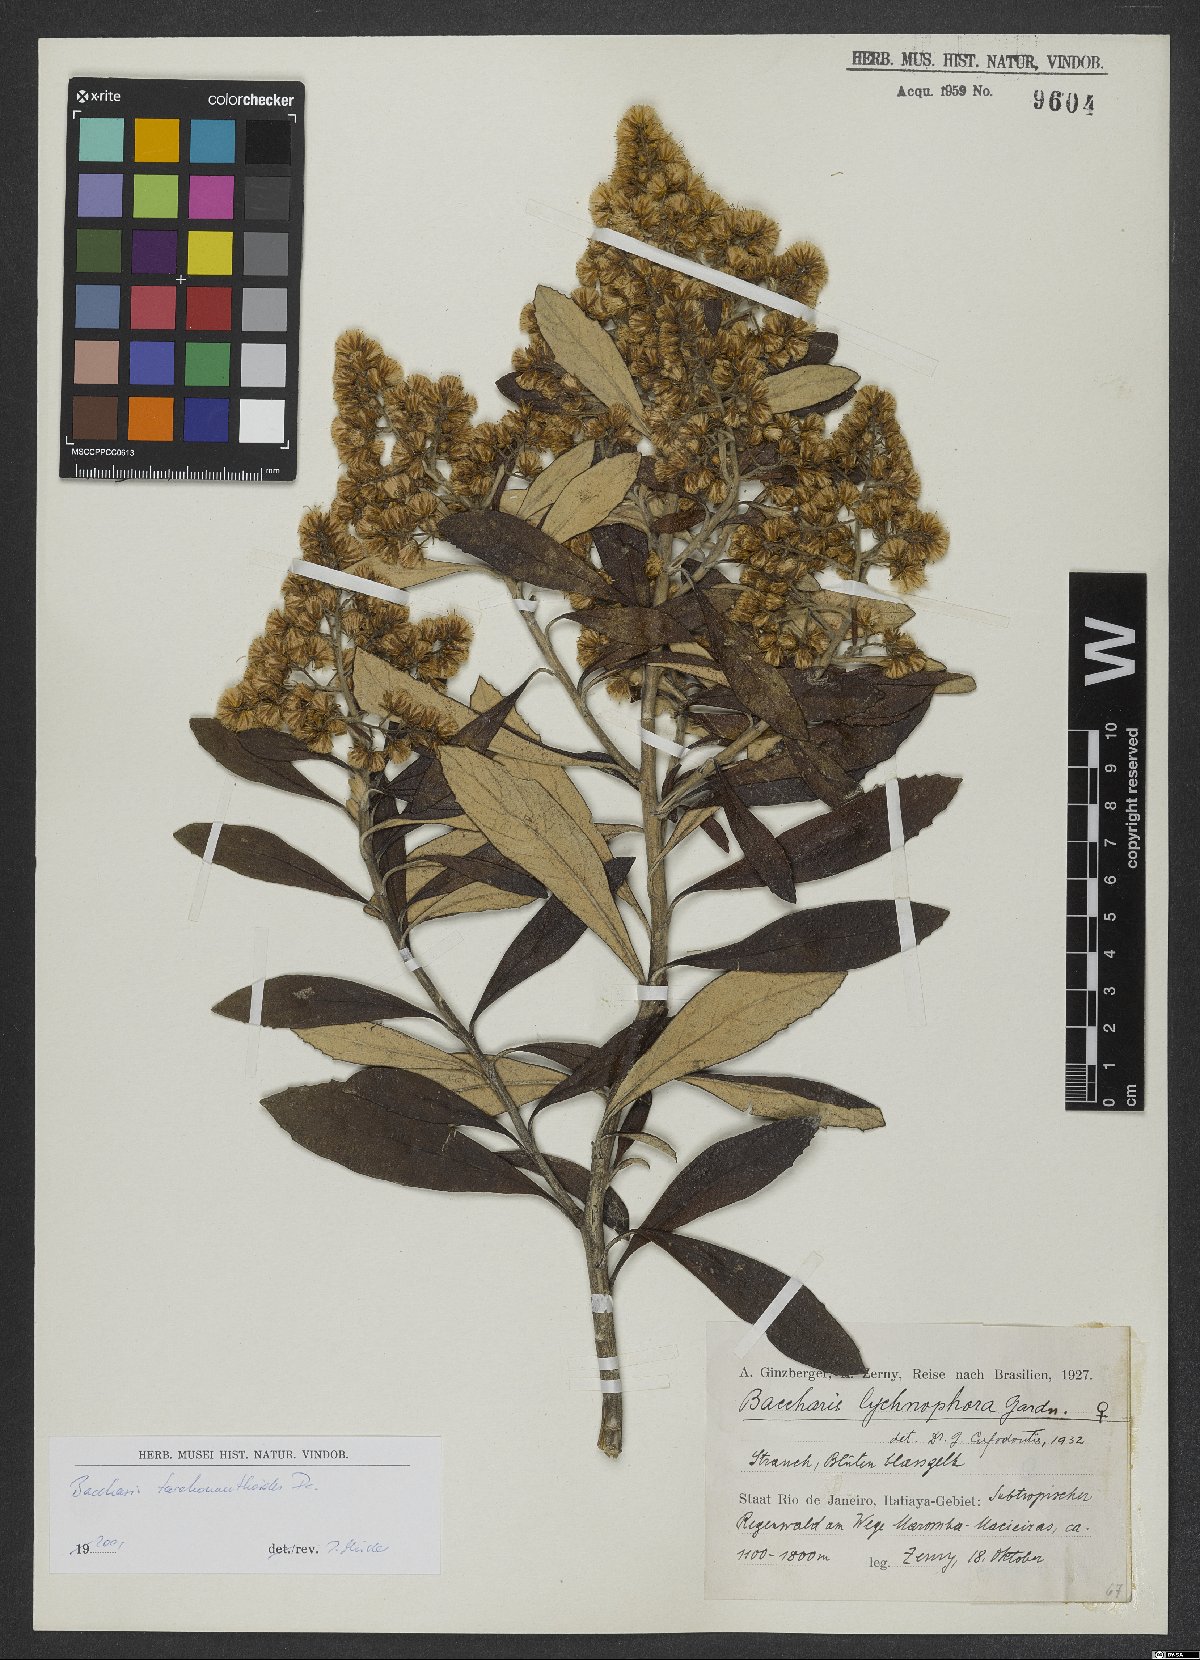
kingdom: Plantae
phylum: Tracheophyta
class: Magnoliopsida
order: Asterales
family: Asteraceae
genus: Baccharis
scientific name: Baccharis tarchonanthoides
